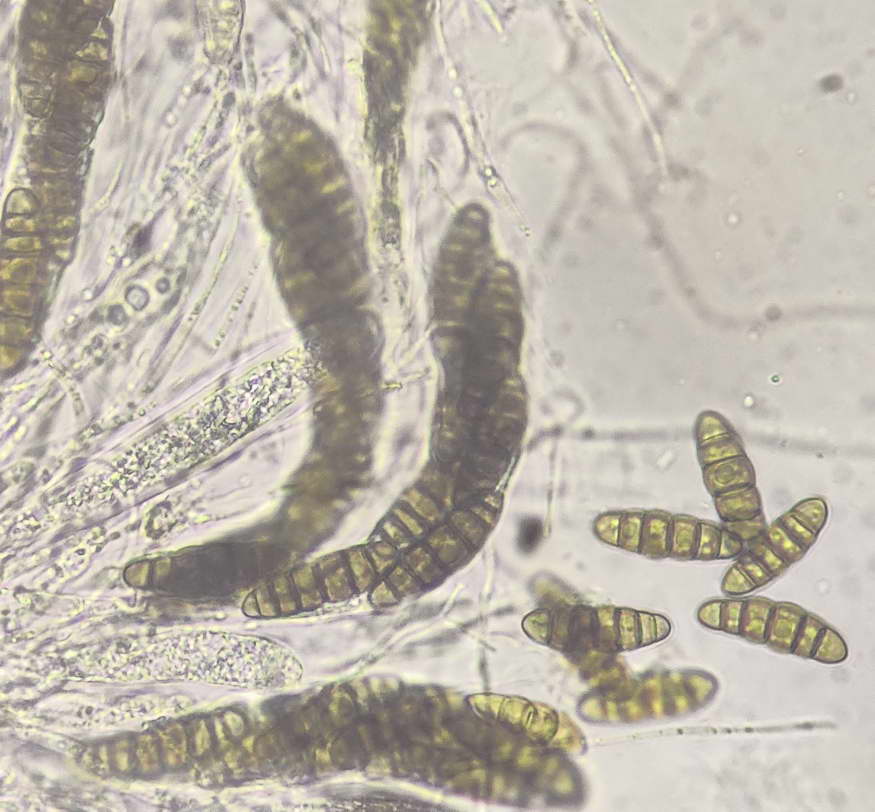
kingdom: Fungi
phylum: Ascomycota
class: Dothideomycetes
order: Pleosporales
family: Thyridariaceae
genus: Thyridaria
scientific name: Thyridaria macrostomoides
